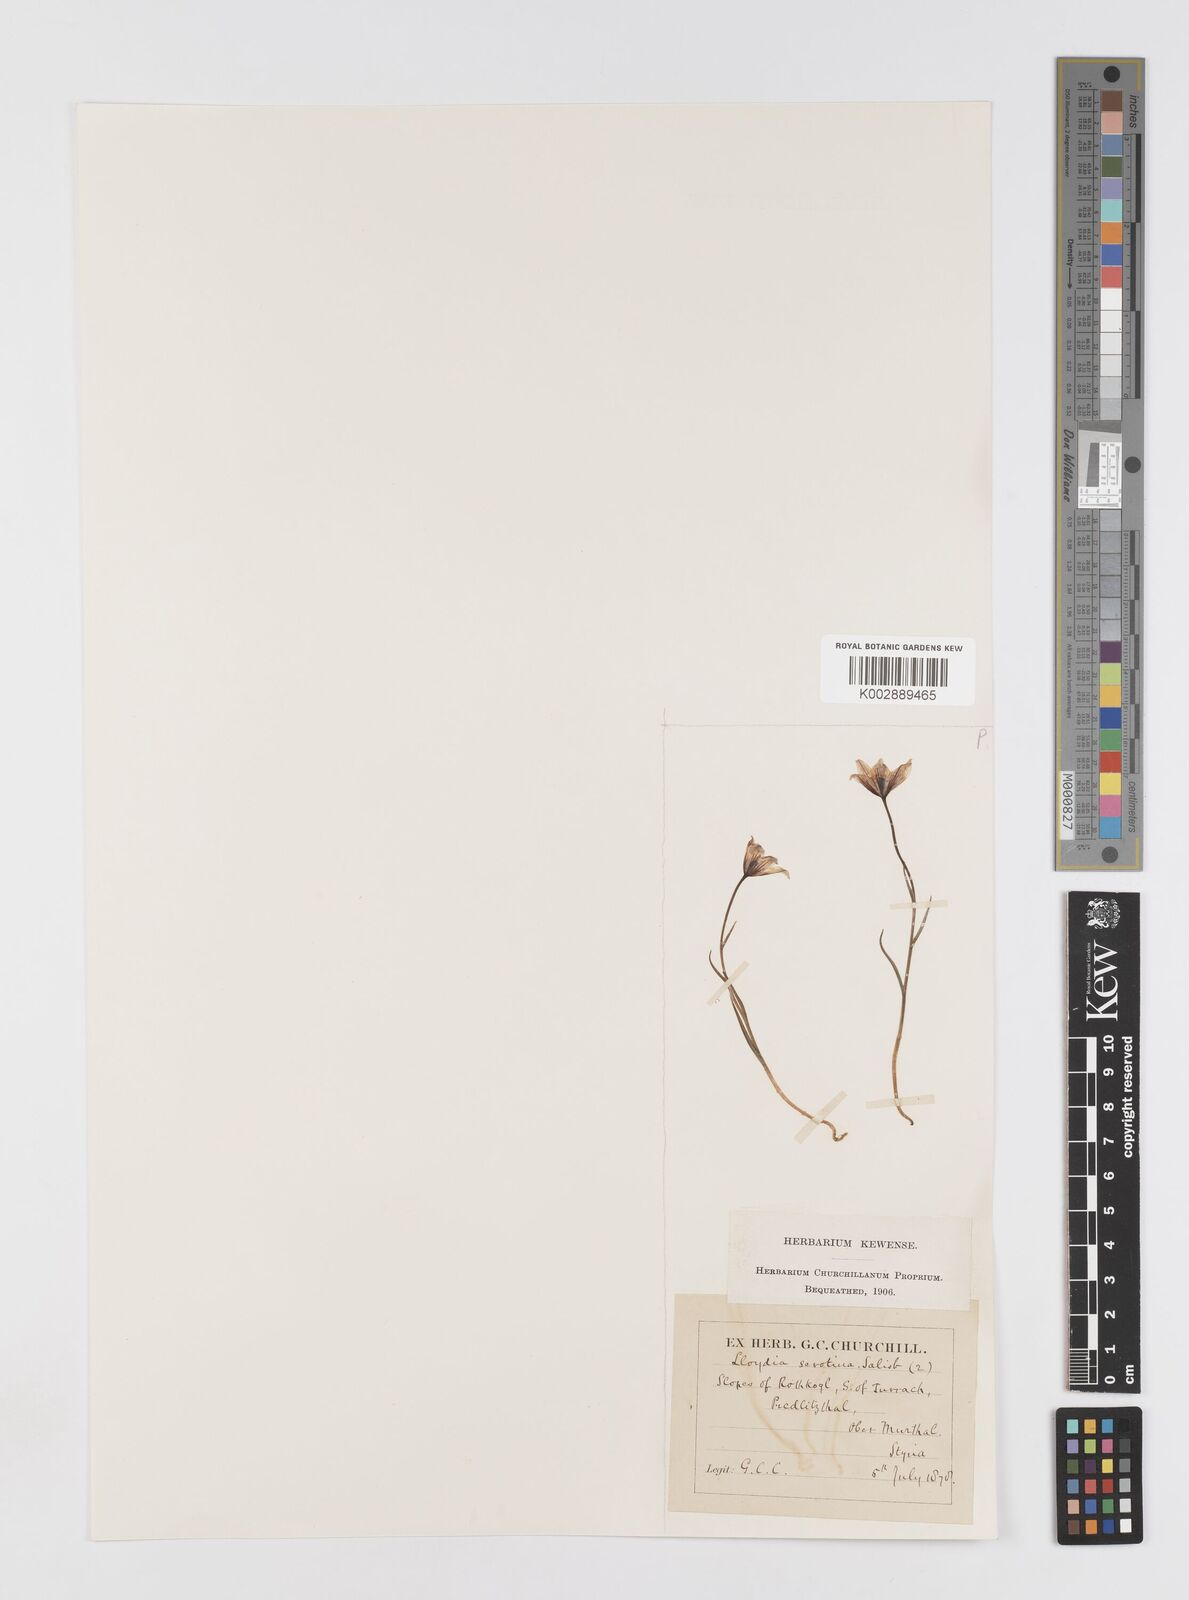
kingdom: Plantae
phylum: Tracheophyta
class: Liliopsida
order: Liliales
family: Liliaceae
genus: Gagea
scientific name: Gagea
